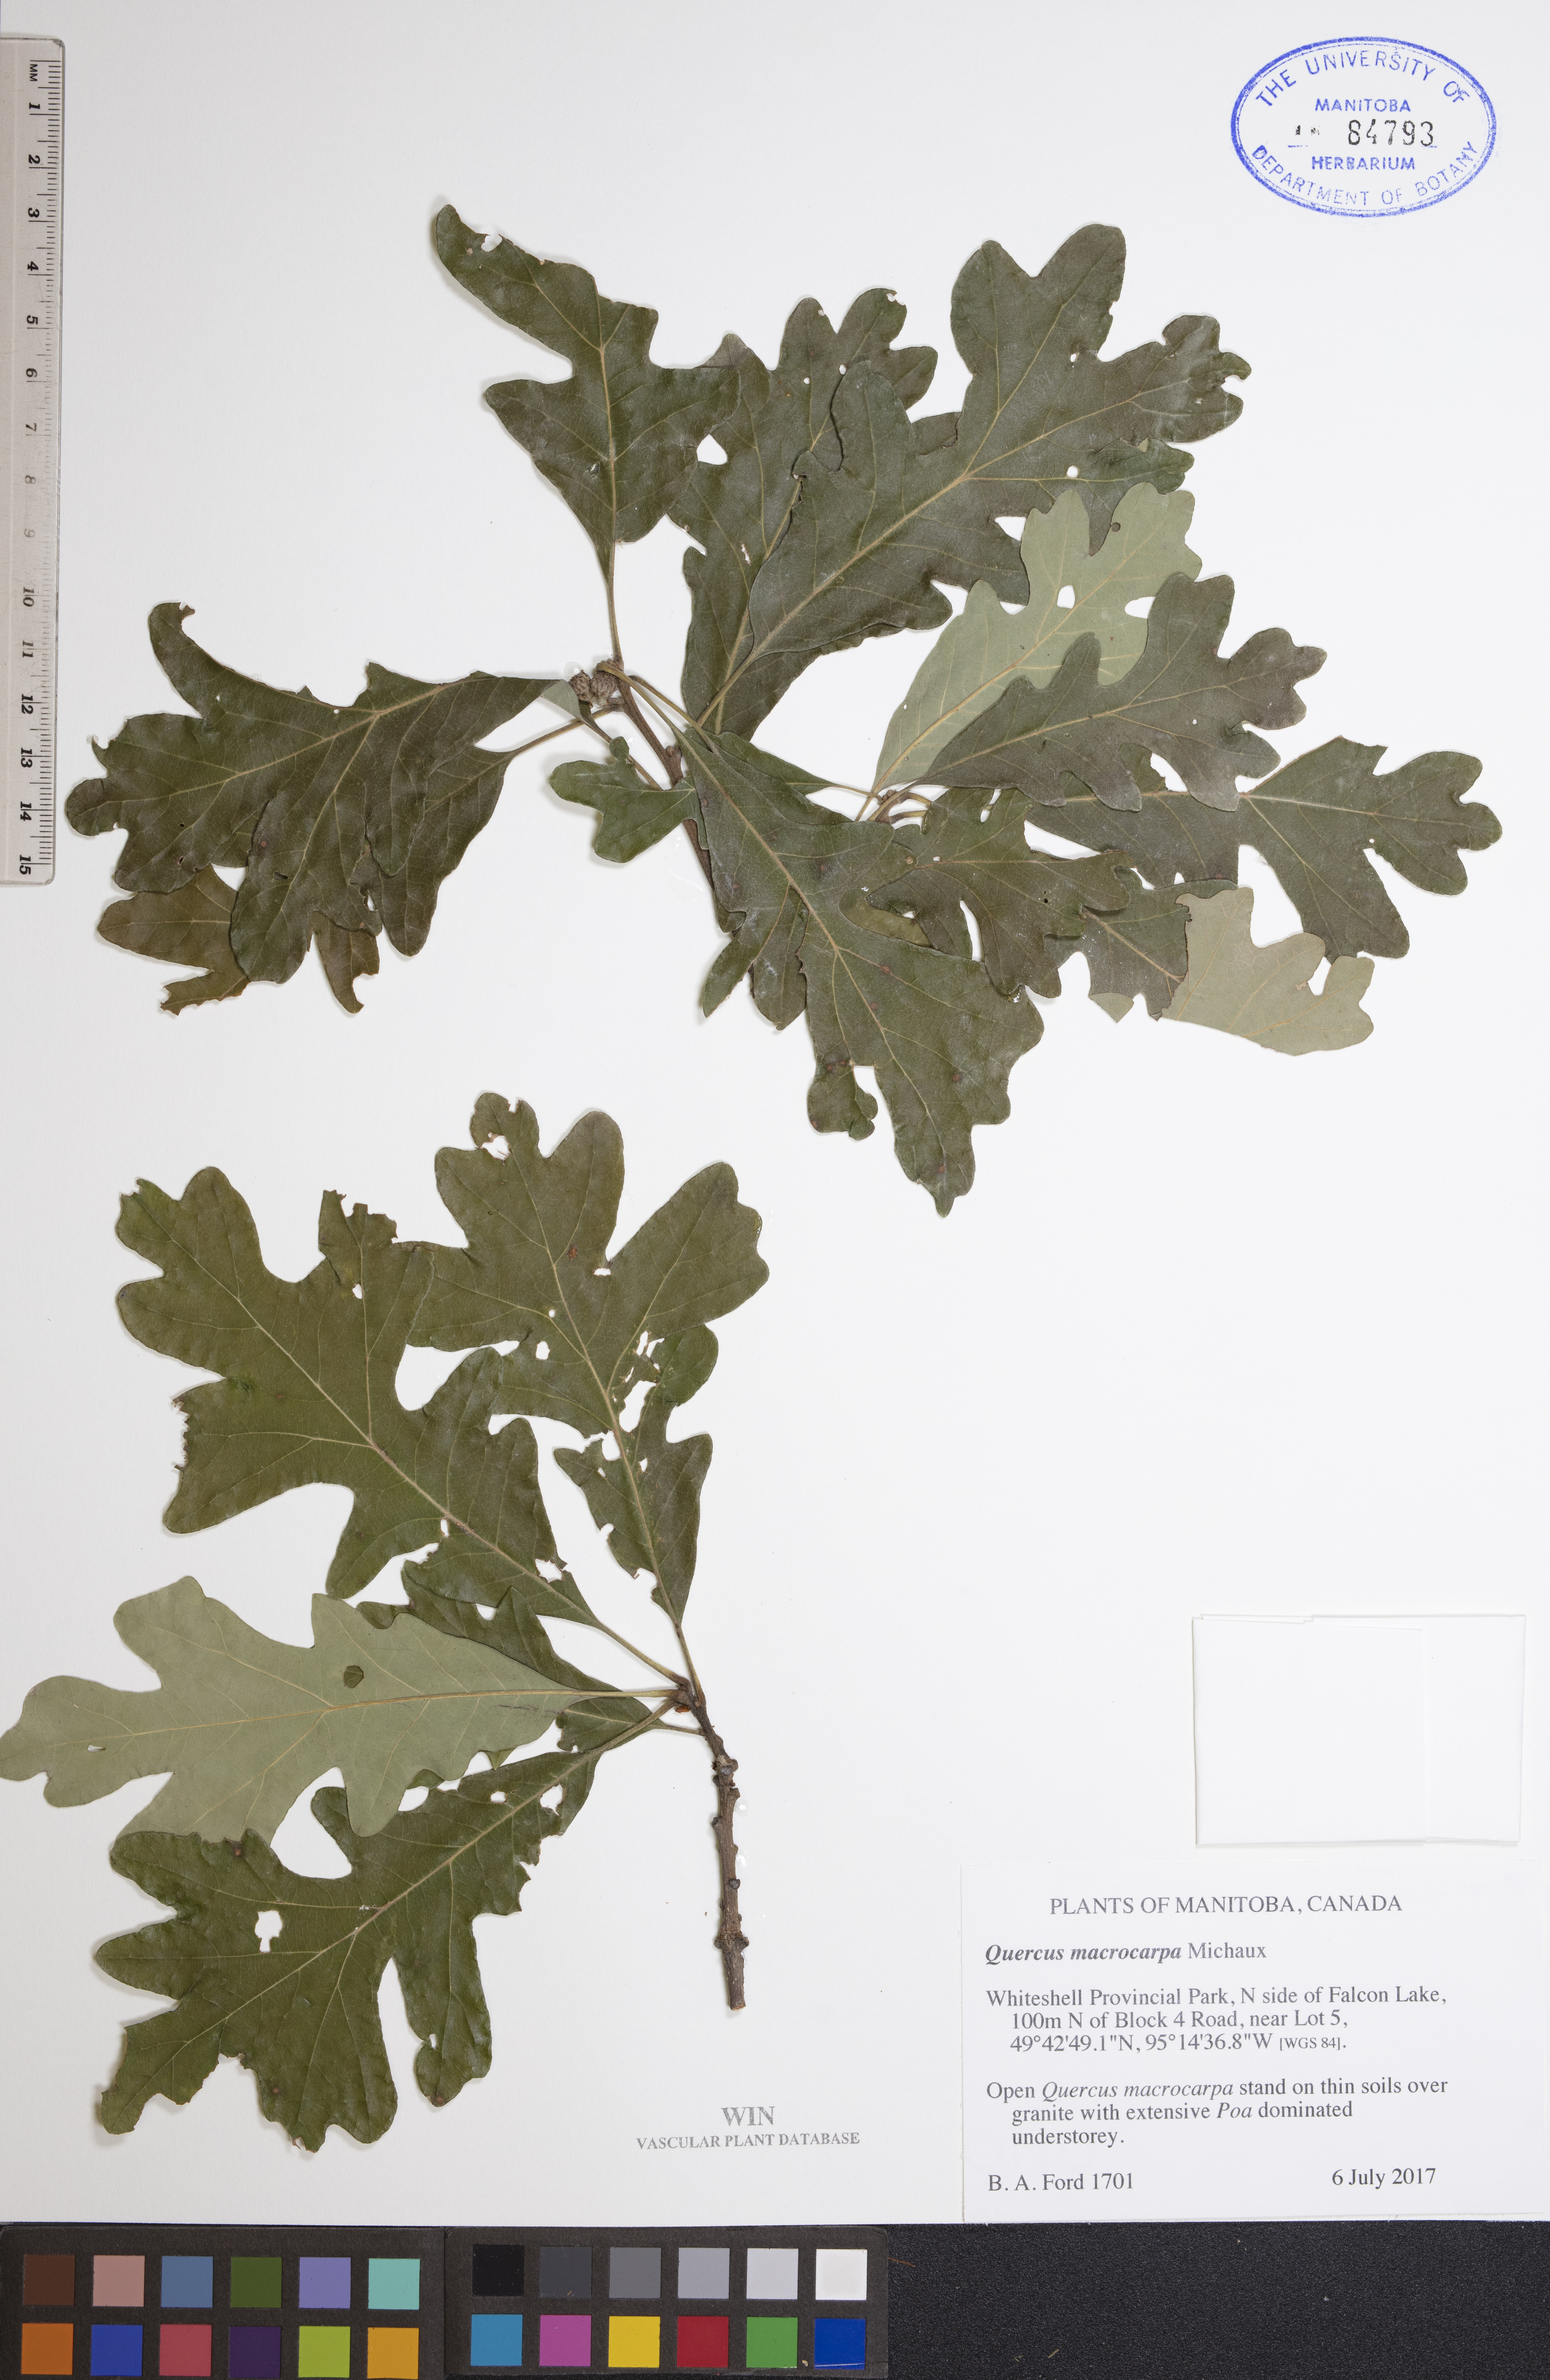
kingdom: Plantae
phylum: Tracheophyta
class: Magnoliopsida
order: Fagales
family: Fagaceae
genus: Quercus
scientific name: Quercus macrocarpa
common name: Bur oak
